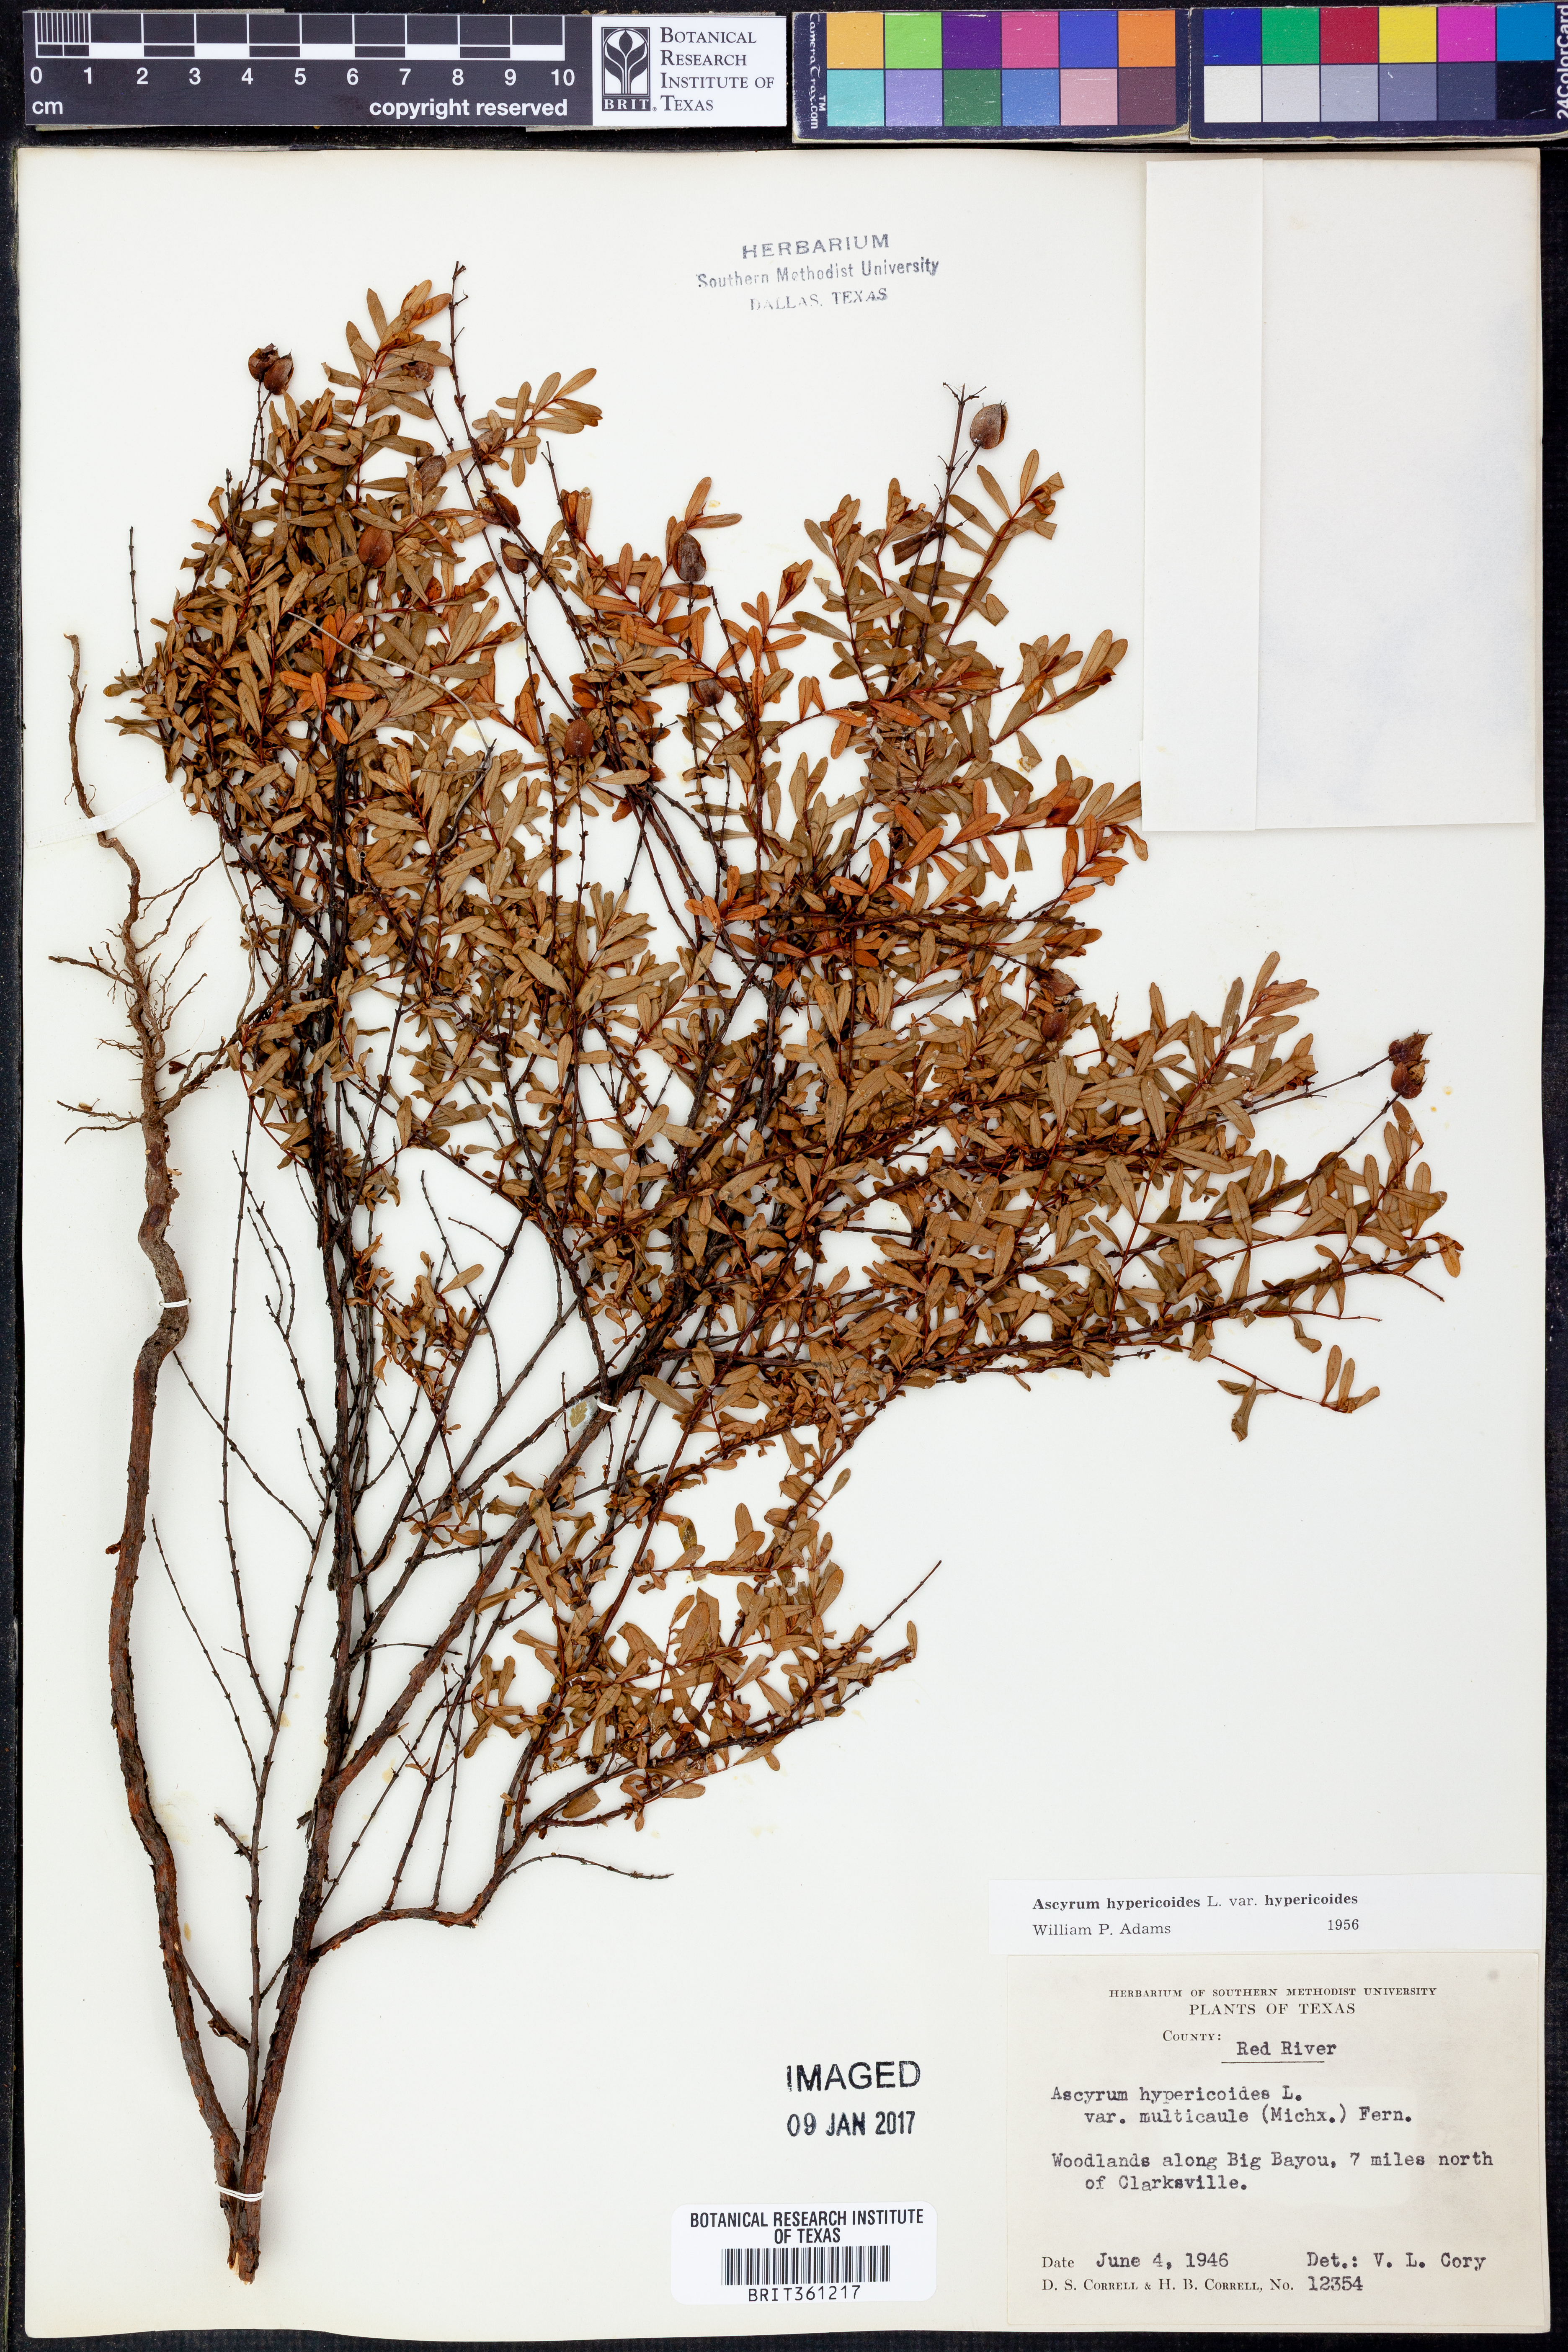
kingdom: Plantae
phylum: Tracheophyta
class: Magnoliopsida
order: Malpighiales
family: Hypericaceae
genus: Hypericum
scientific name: Hypericum hypericoides
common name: St. andrew's cross
